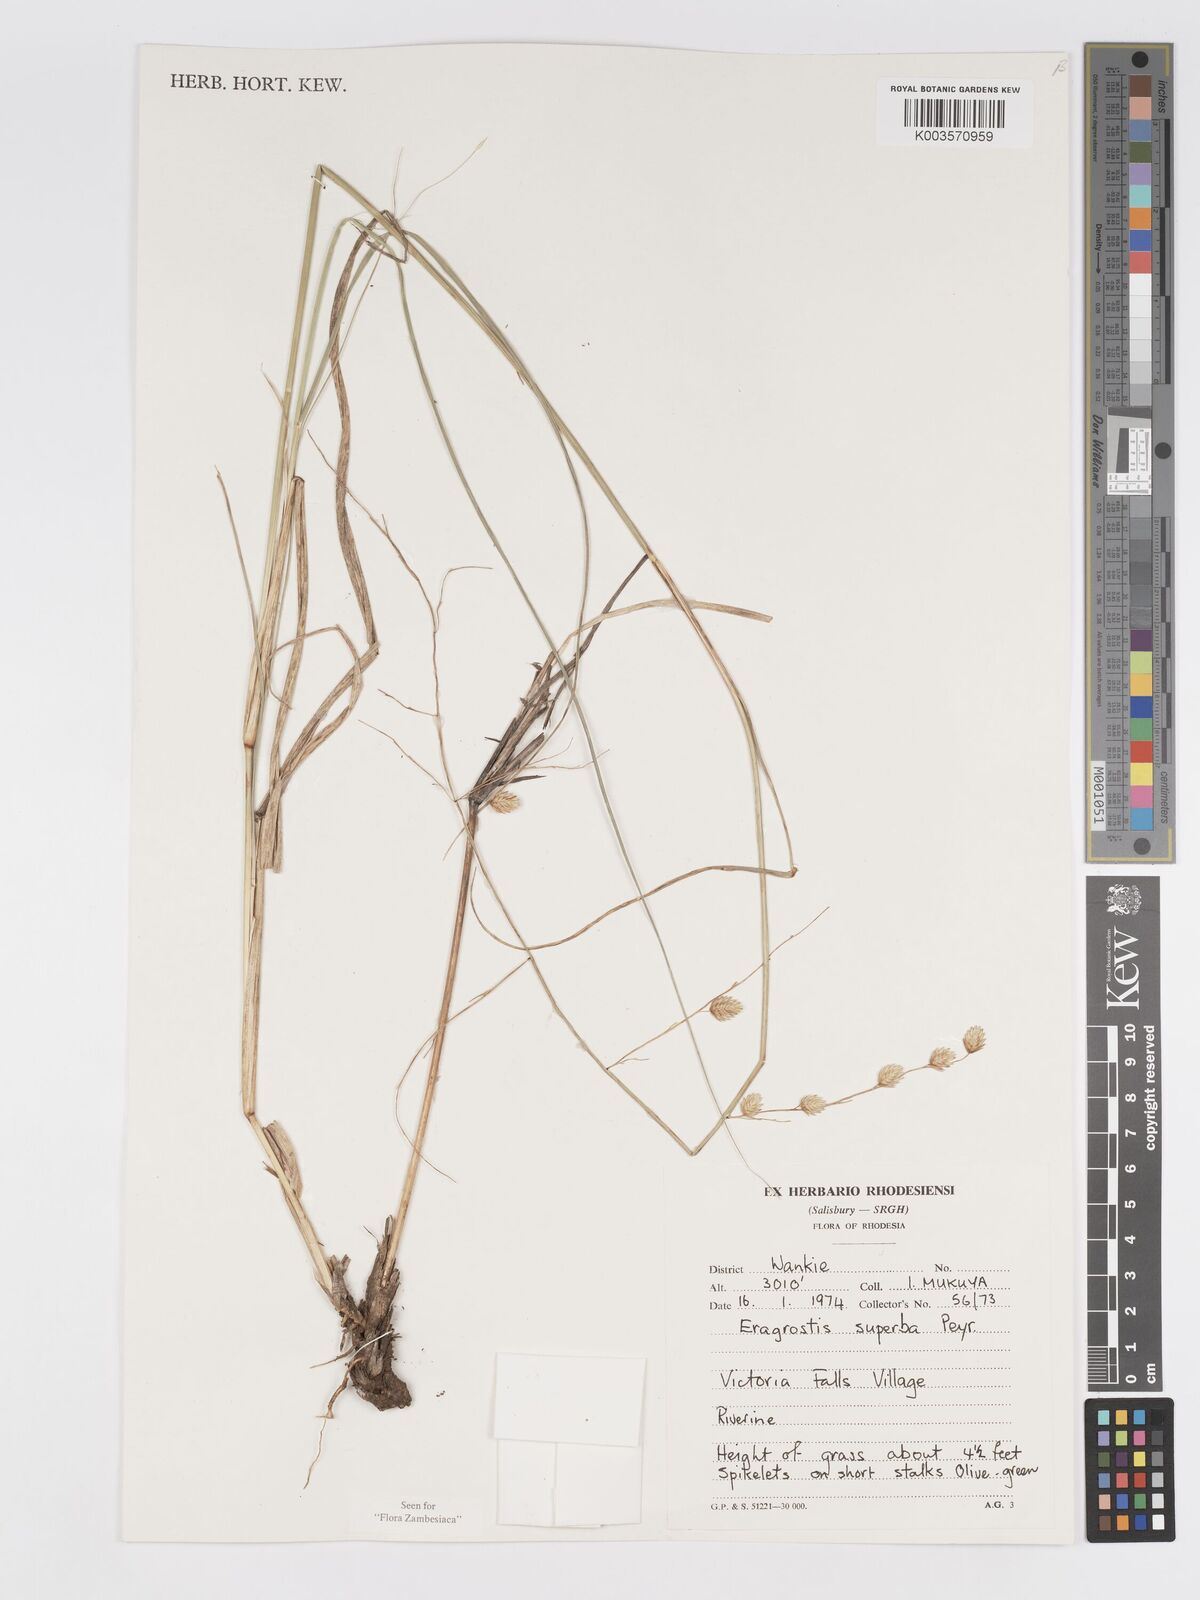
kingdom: Plantae
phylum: Tracheophyta
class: Liliopsida
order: Poales
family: Poaceae
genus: Eragrostis
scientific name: Eragrostis superba
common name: Wilman lovegrass
